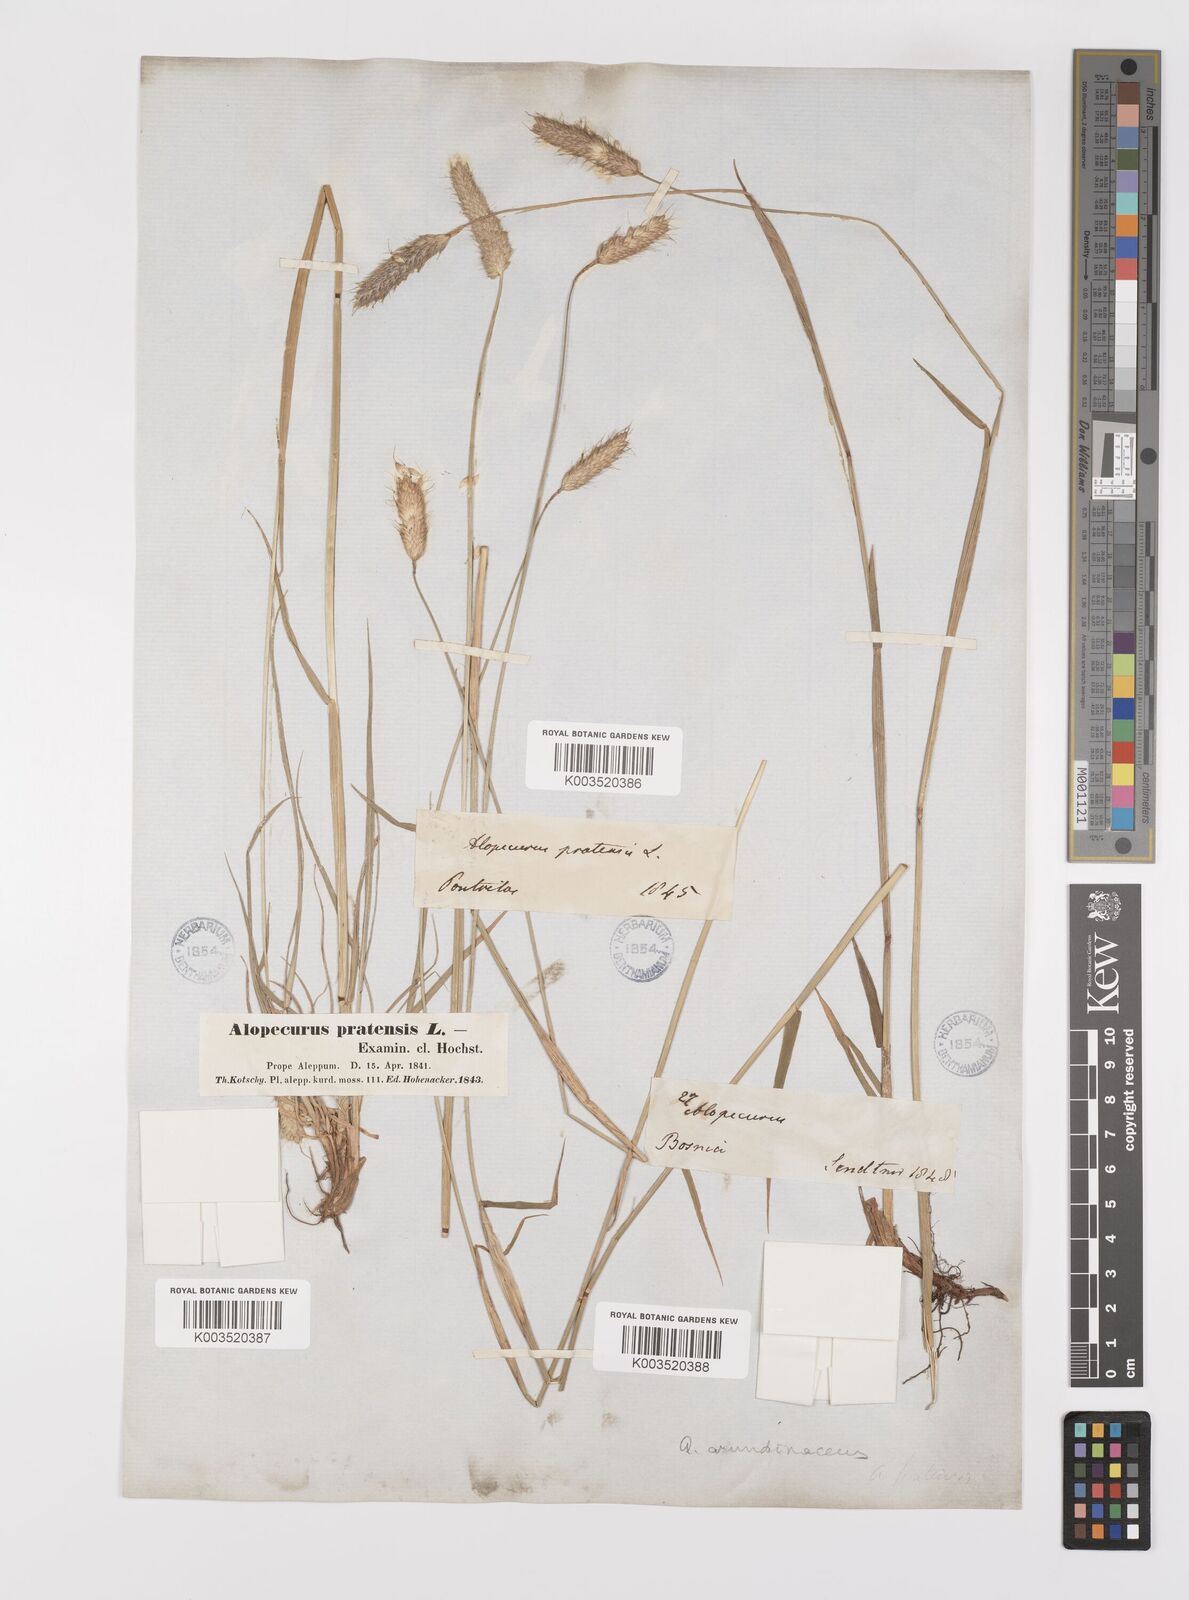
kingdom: Plantae
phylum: Tracheophyta
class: Liliopsida
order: Poales
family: Poaceae
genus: Alopecurus
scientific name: Alopecurus arundinaceus
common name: Creeping meadow foxtail
